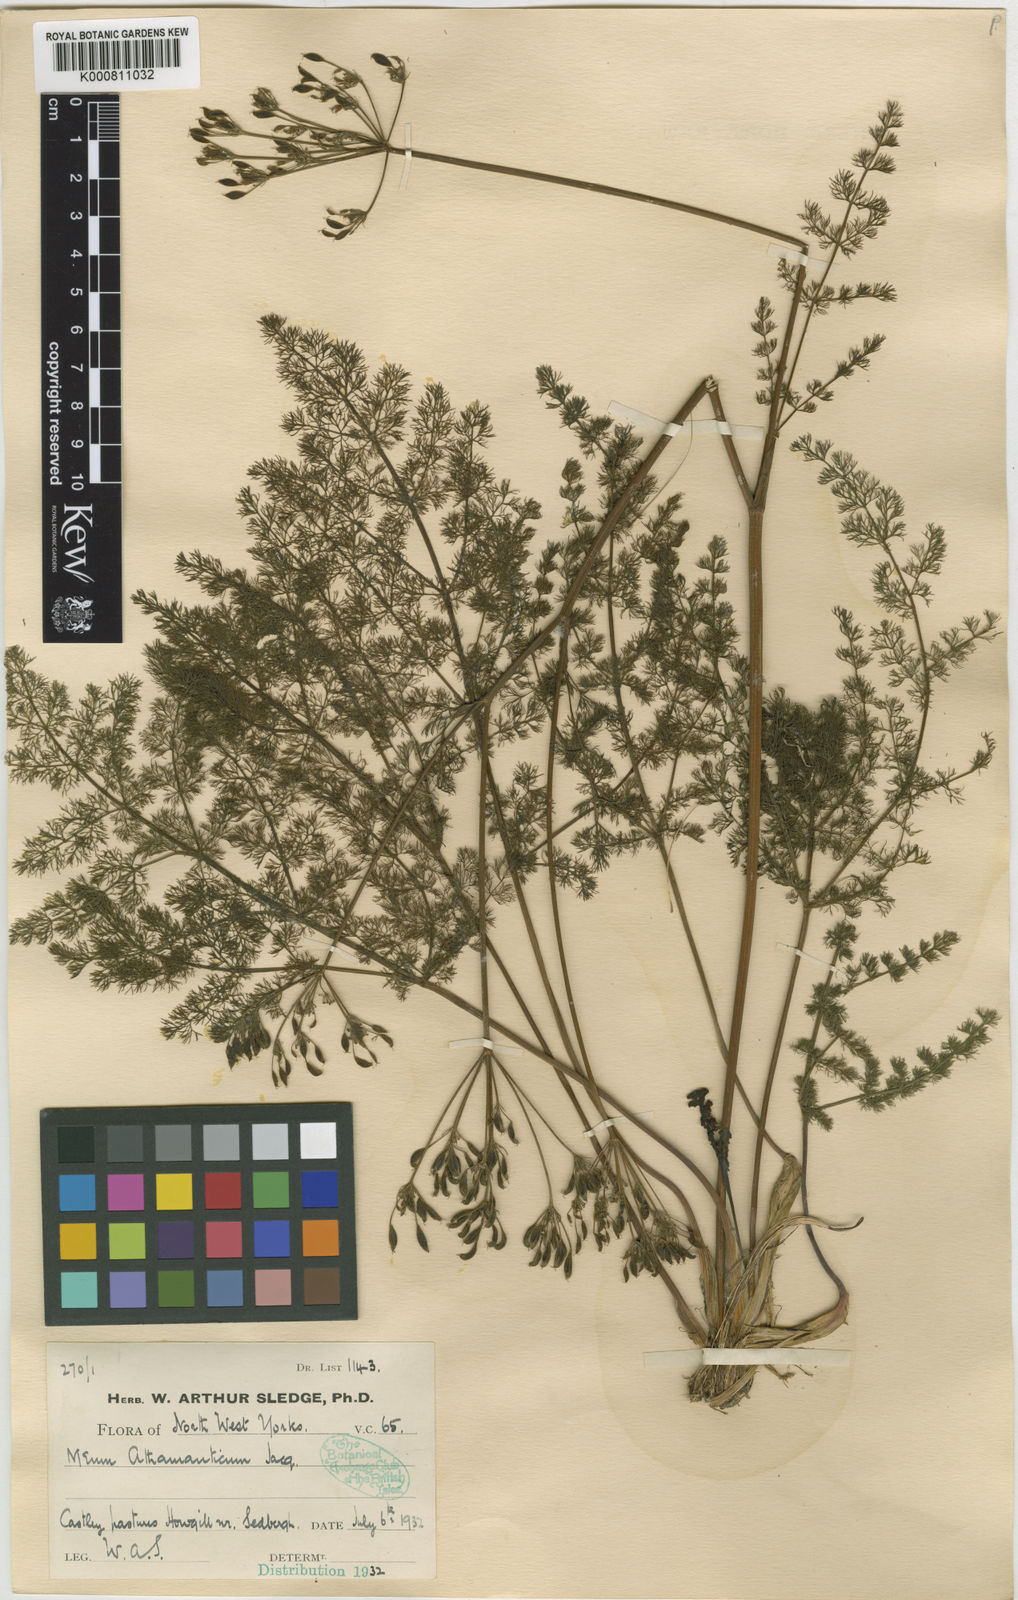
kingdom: Plantae
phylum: Tracheophyta
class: Magnoliopsida
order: Apiales
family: Apiaceae
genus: Meum
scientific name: Meum athamanticum
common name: Spignel
